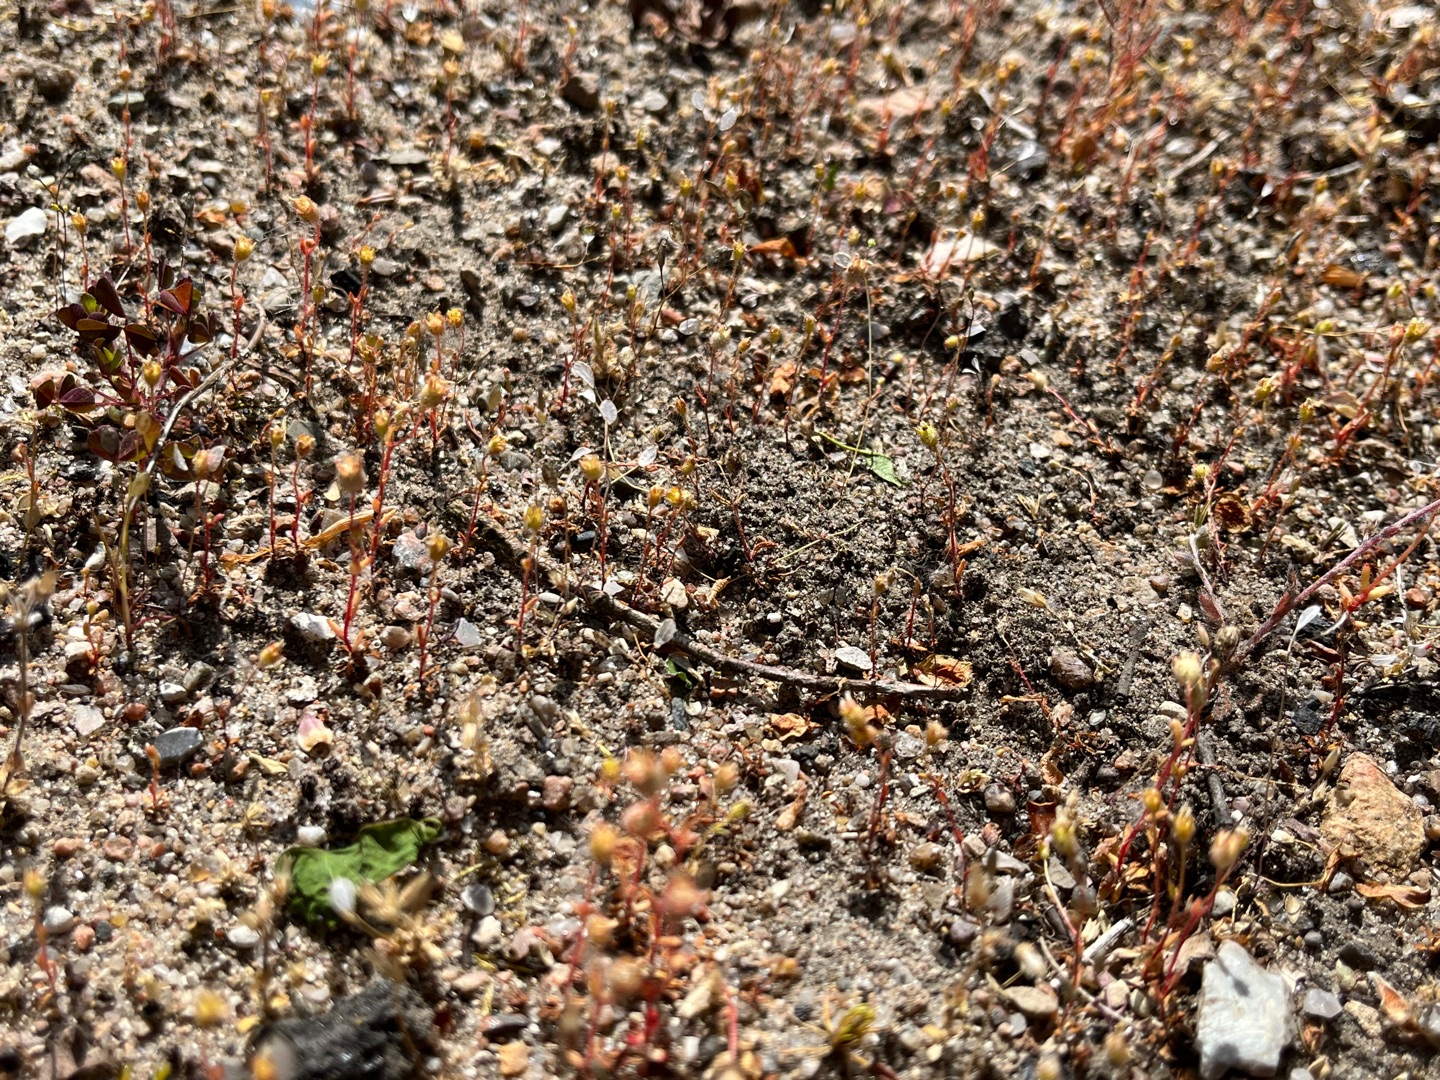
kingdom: Plantae
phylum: Tracheophyta
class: Magnoliopsida
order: Saxifragales
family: Saxifragaceae
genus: Saxifraga
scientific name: Saxifraga tridactylites
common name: Trekløft-stenbræk
